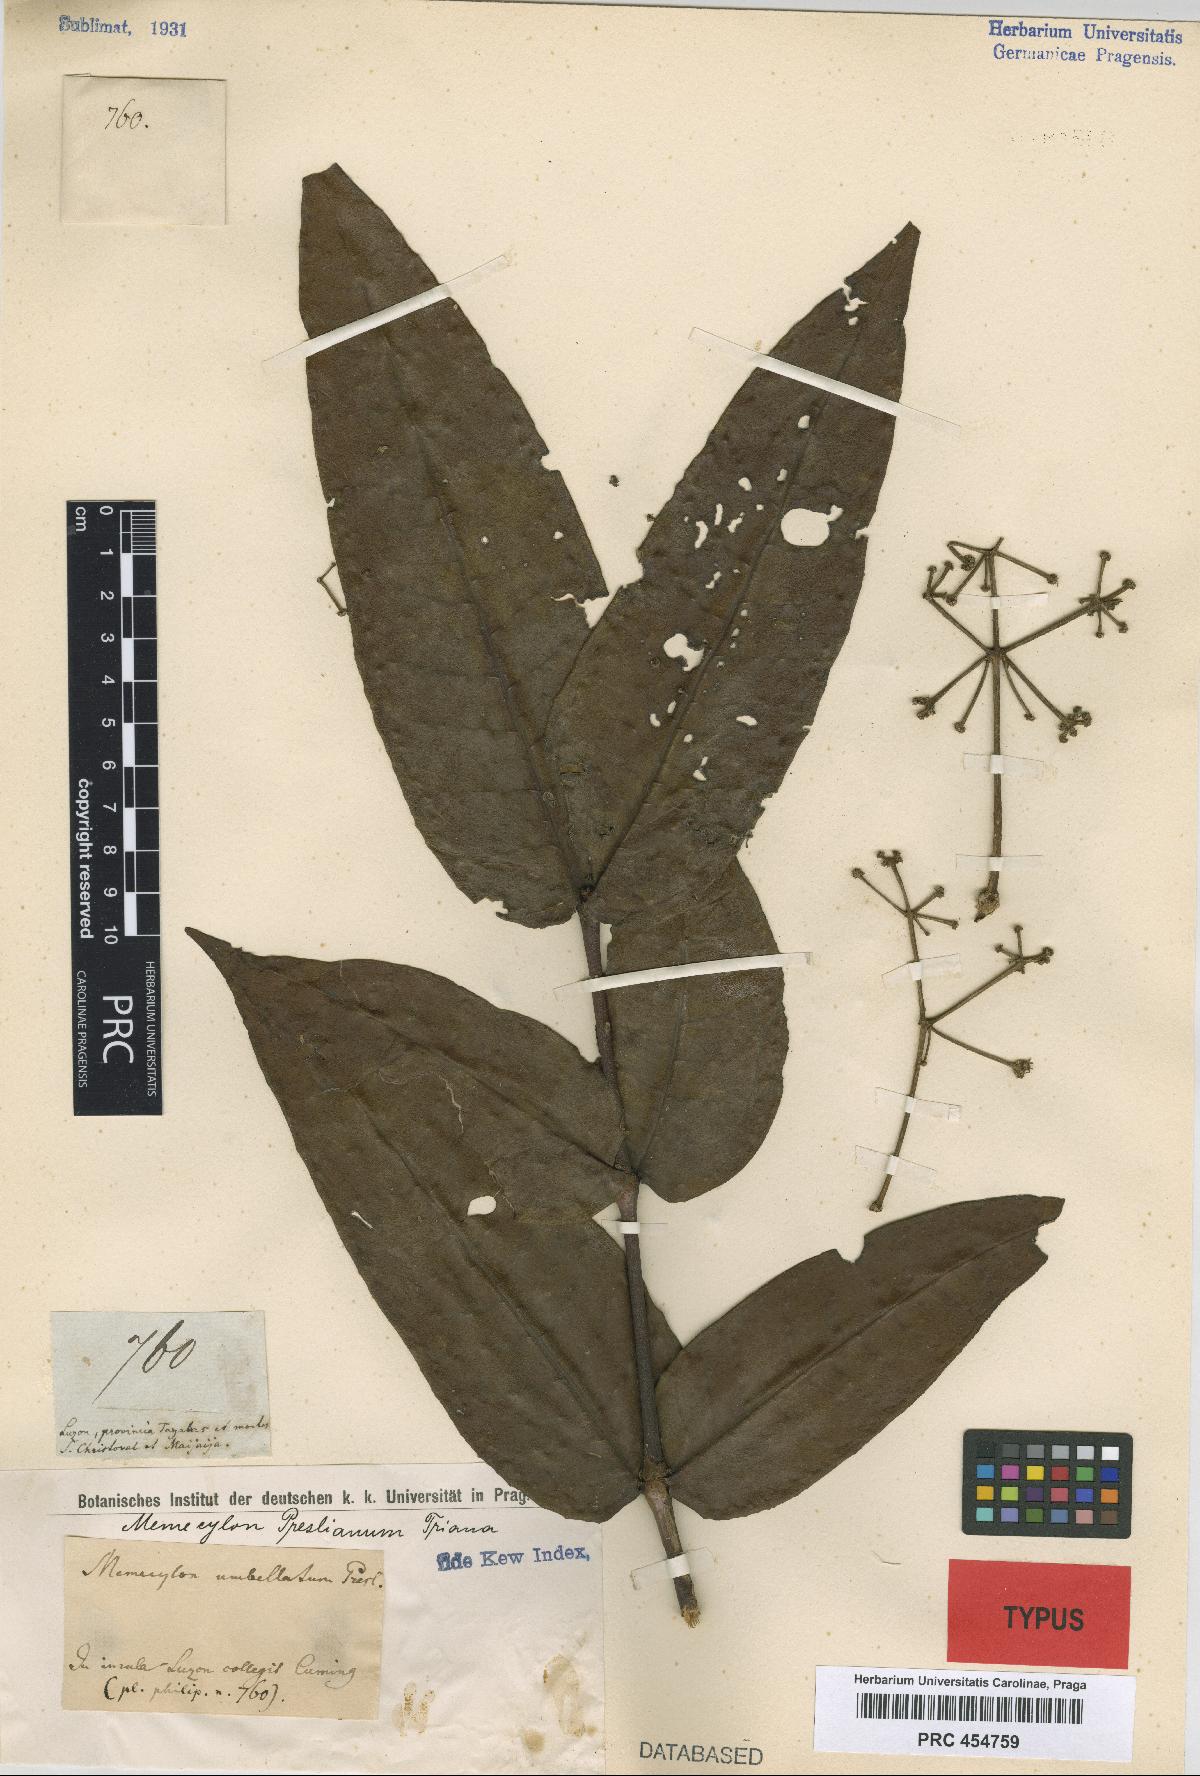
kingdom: Plantae
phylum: Tracheophyta
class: Magnoliopsida
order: Myrtales
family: Melastomataceae
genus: Memecylon
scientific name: Memecylon cumingii
